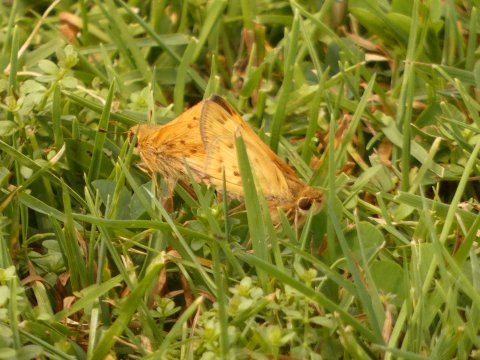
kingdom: Animalia
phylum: Arthropoda
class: Insecta
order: Lepidoptera
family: Hesperiidae
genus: Hylephila
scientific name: Hylephila phyleus
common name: Fiery Skipper
